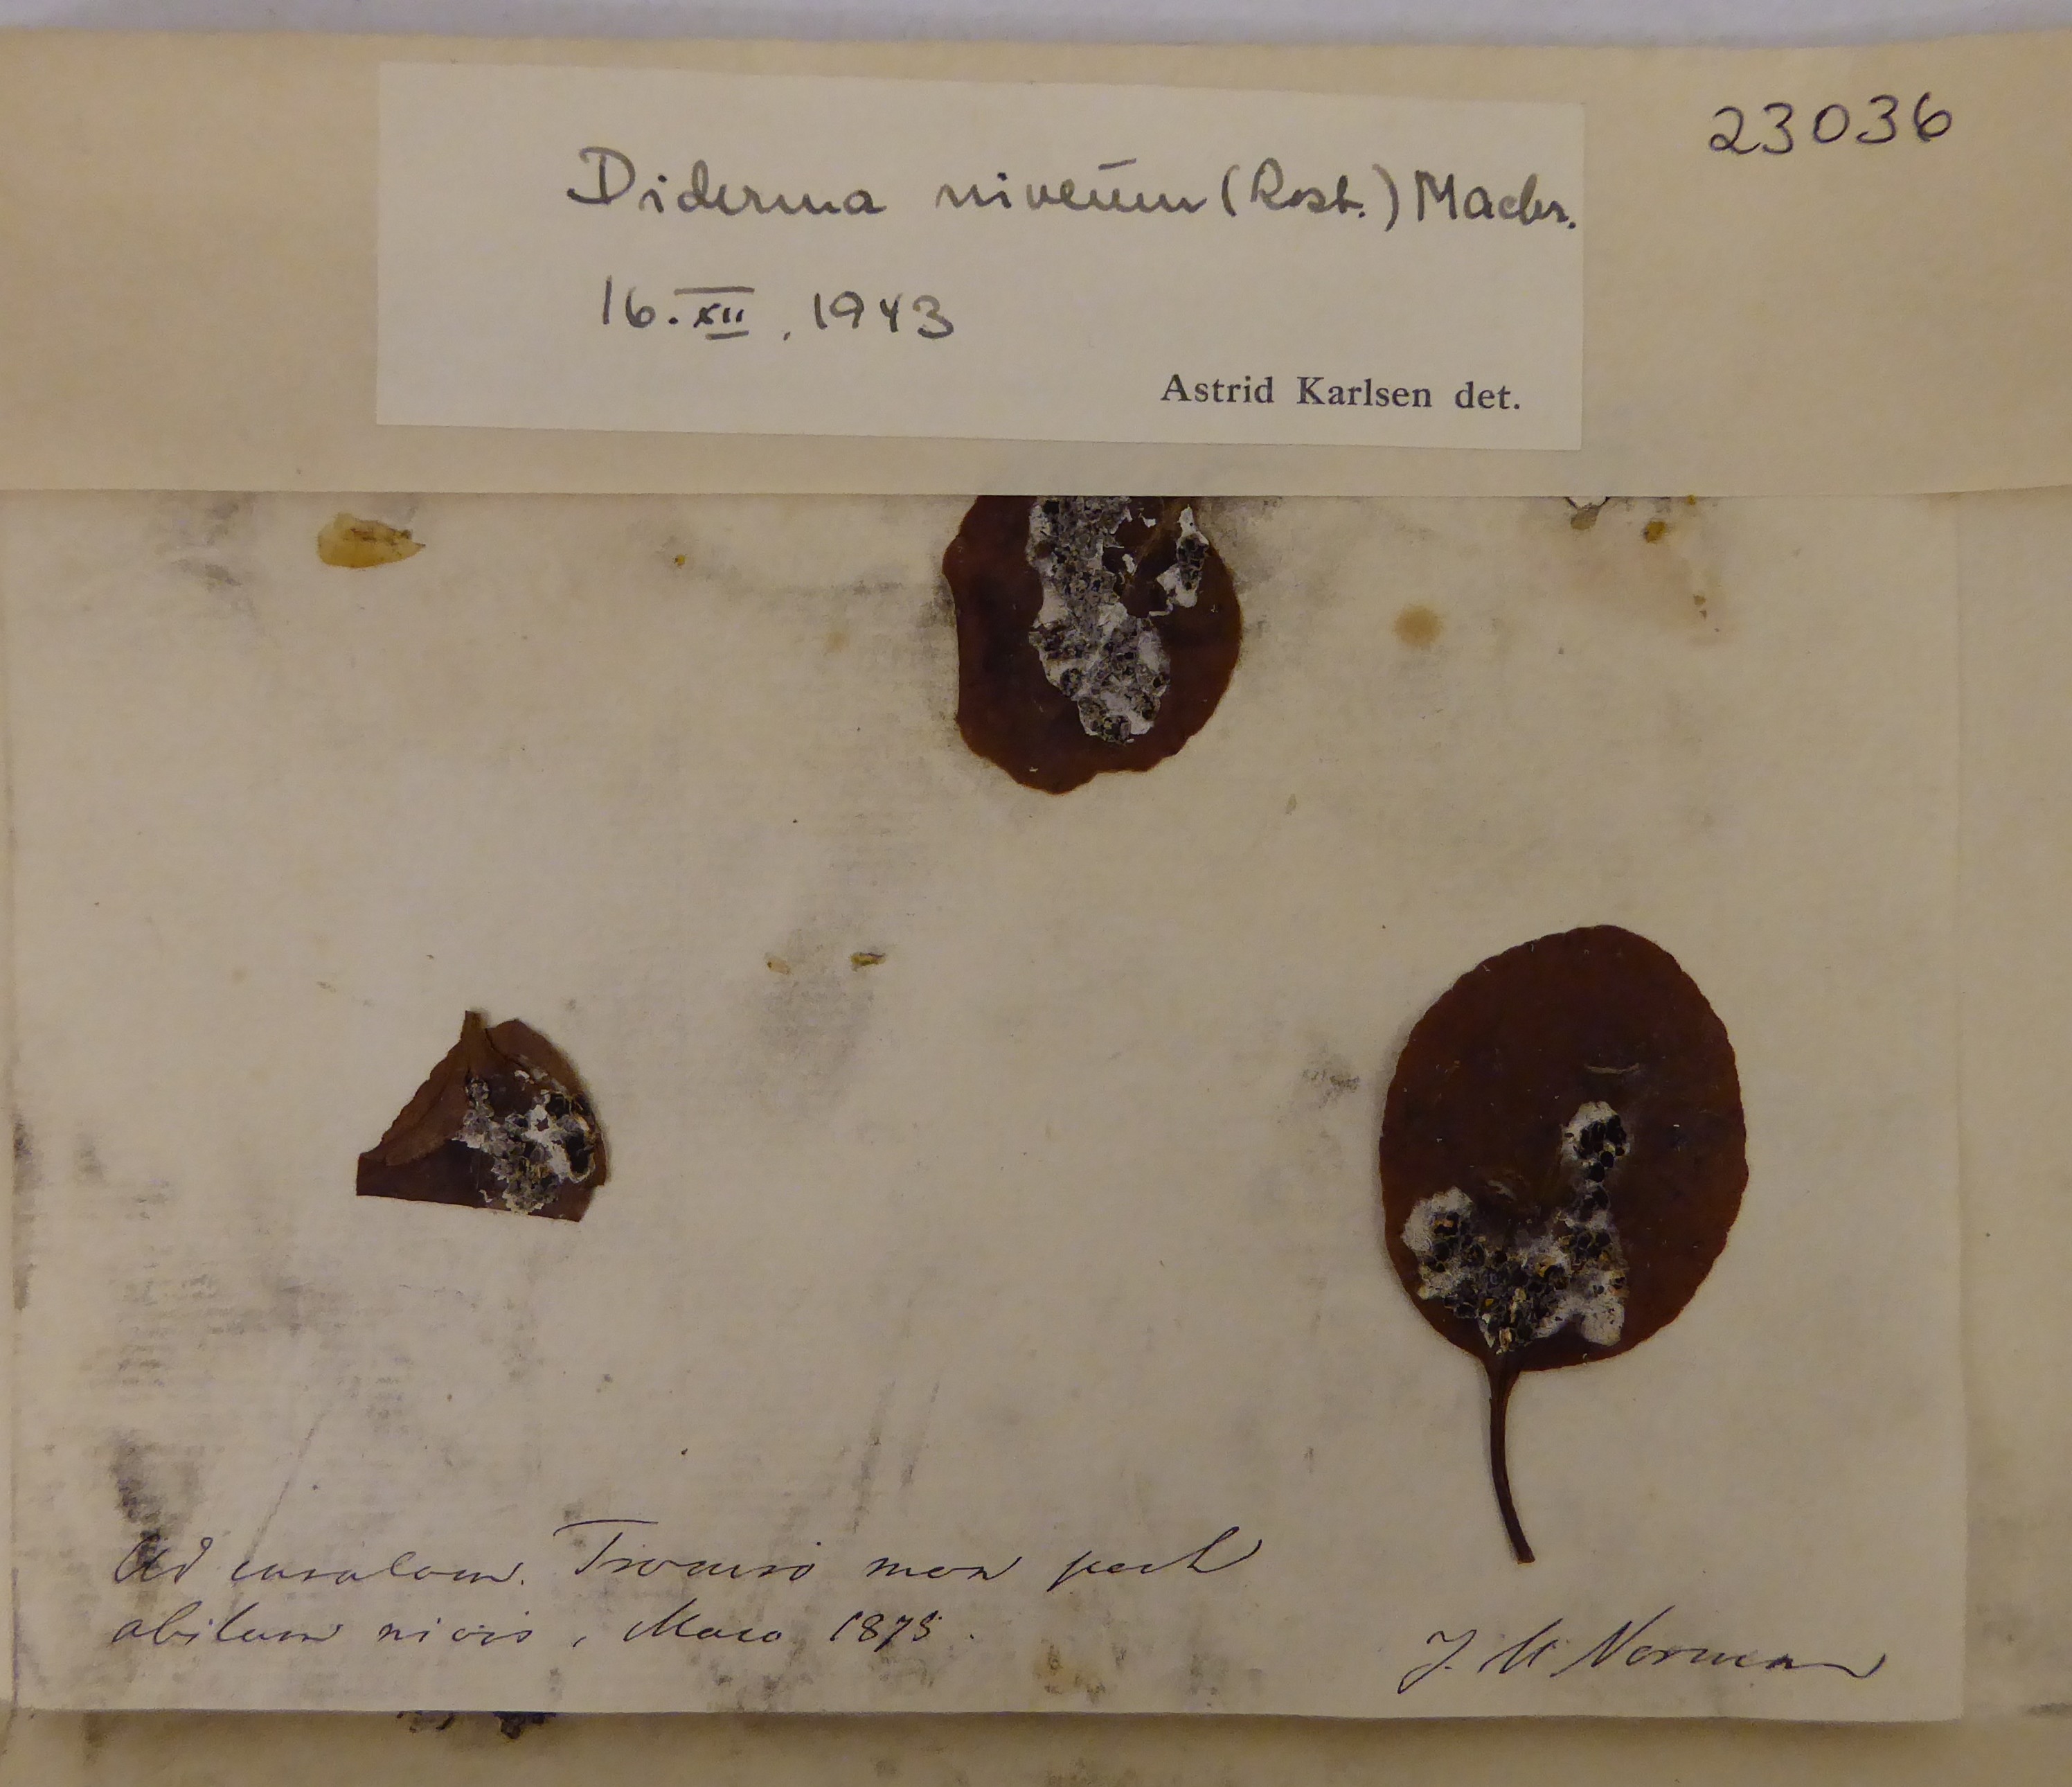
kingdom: Protozoa
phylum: Mycetozoa
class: Myxomycetes
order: Physarales
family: Didymiaceae
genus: Diderma
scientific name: Diderma niveum
